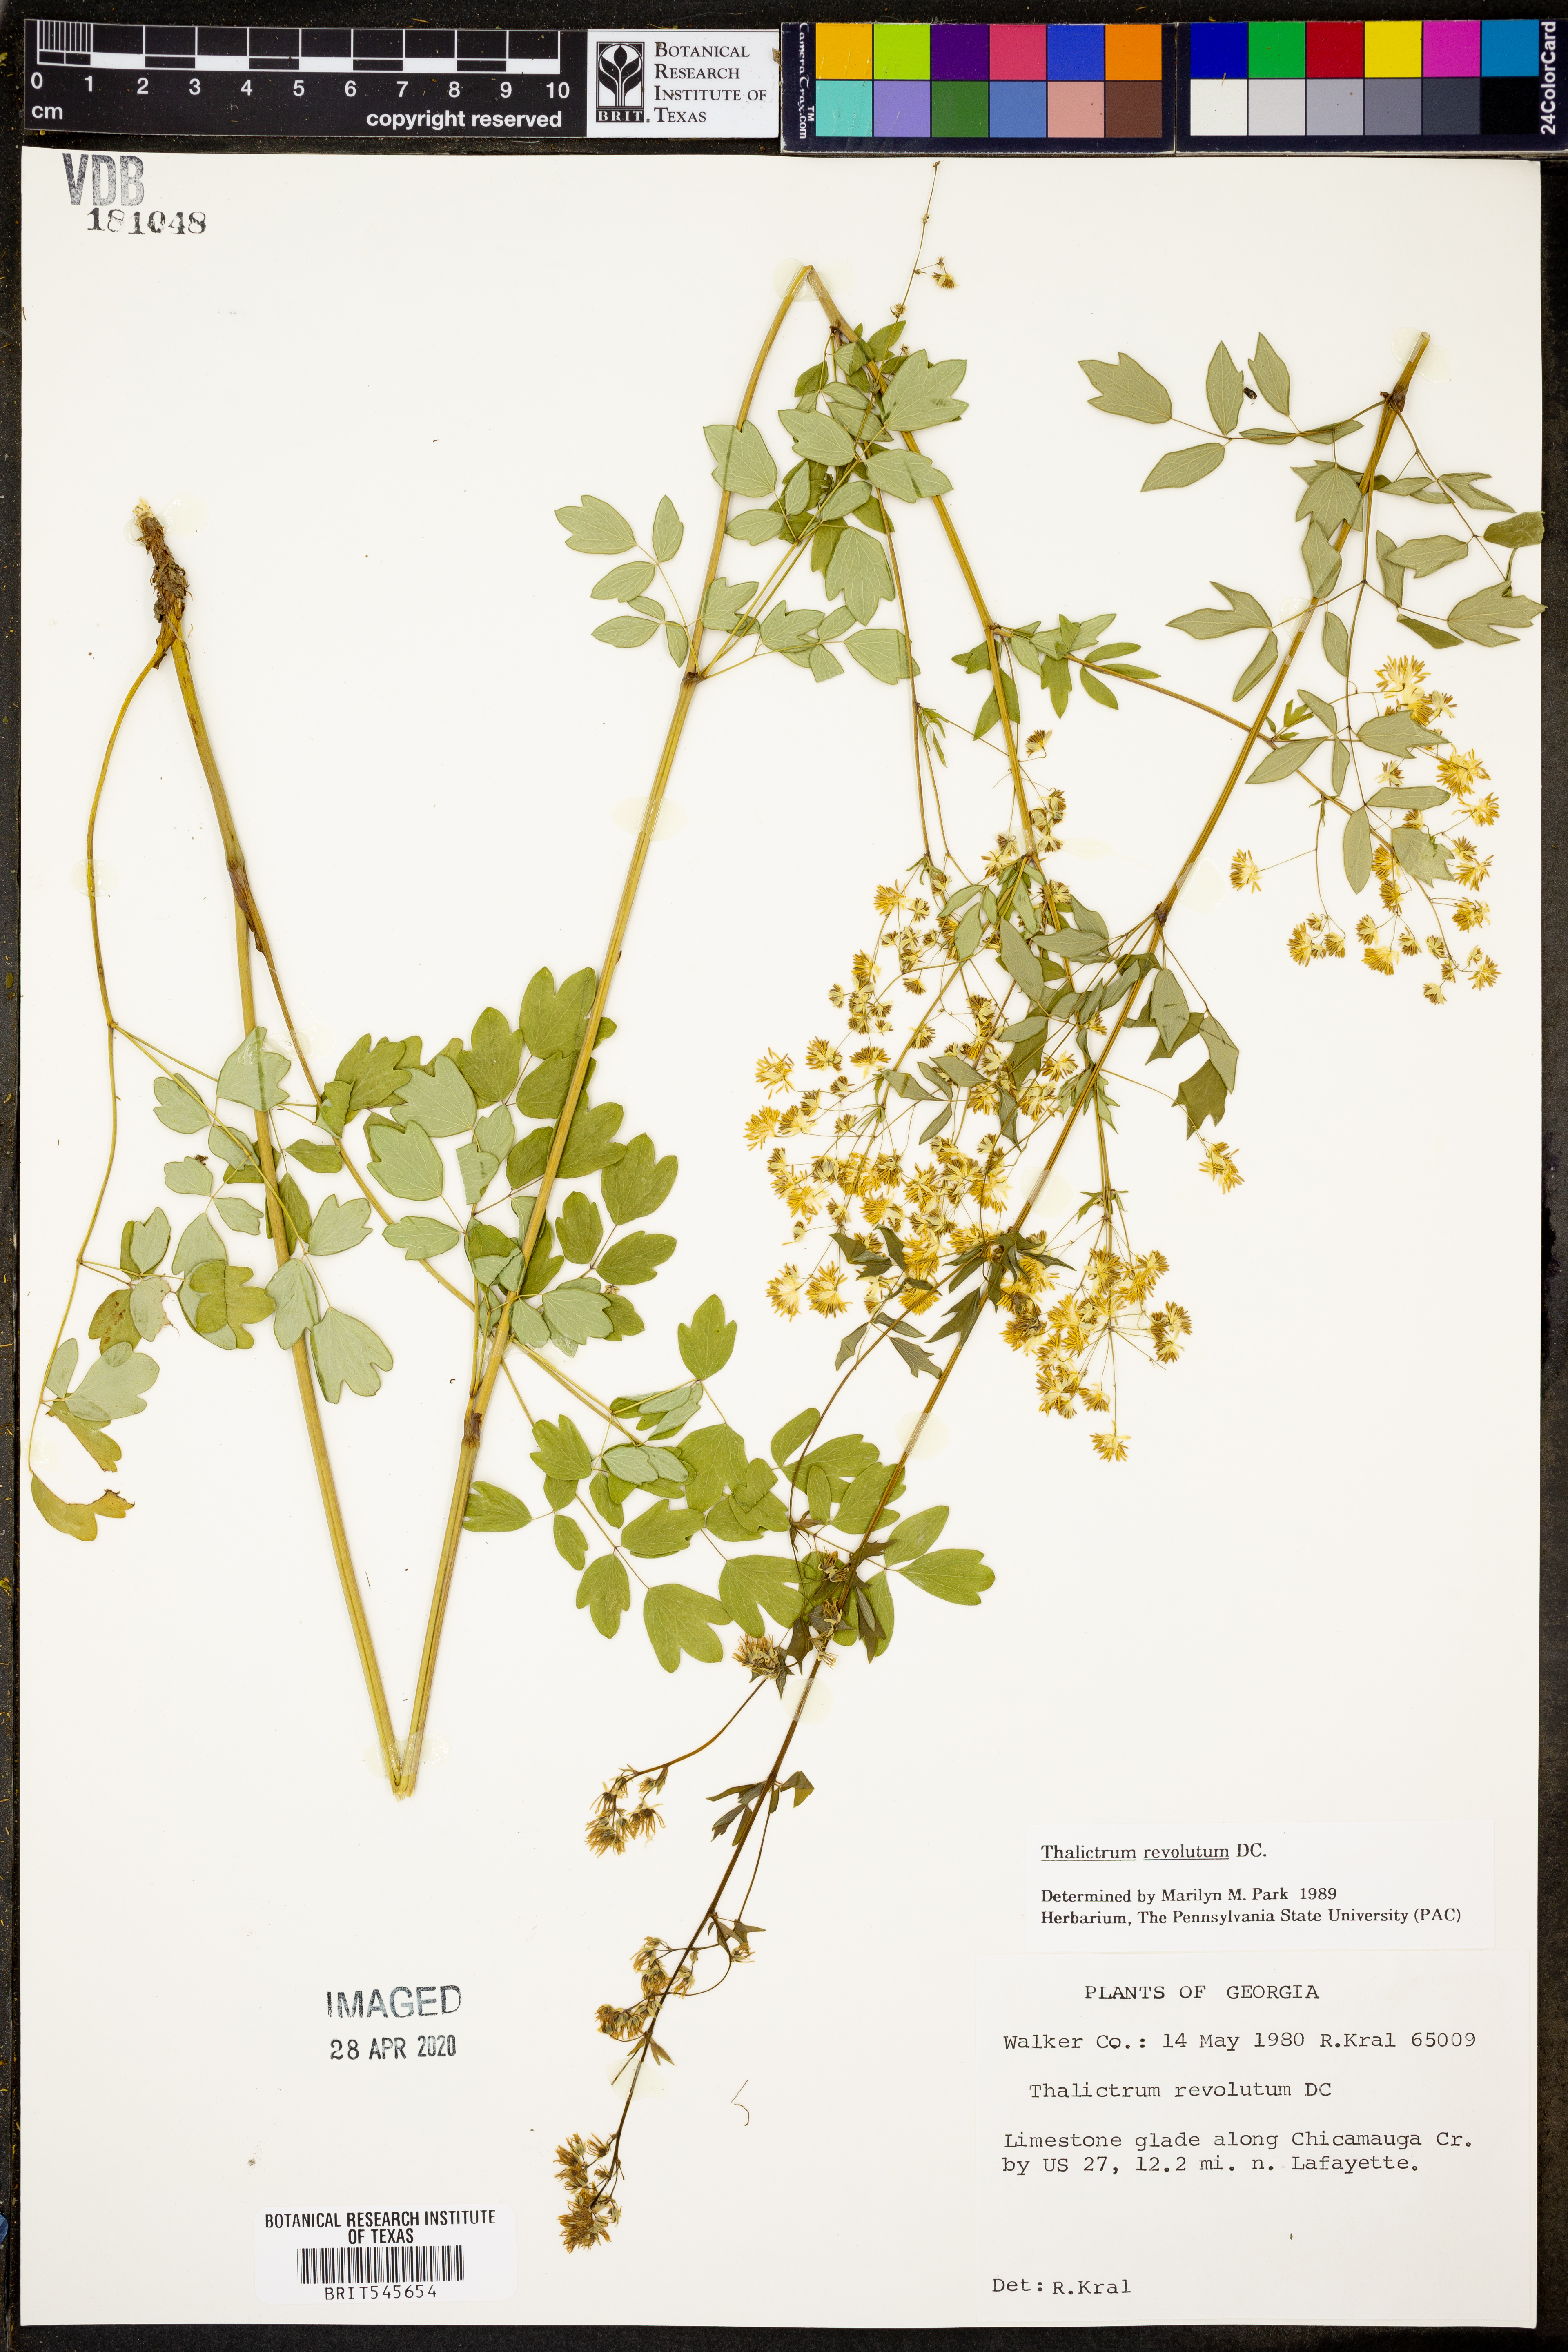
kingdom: Plantae
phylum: Tracheophyta
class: Magnoliopsida
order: Ranunculales
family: Ranunculaceae
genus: Thalictrum
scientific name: Thalictrum revolutum
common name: Waxy meadow-rue
